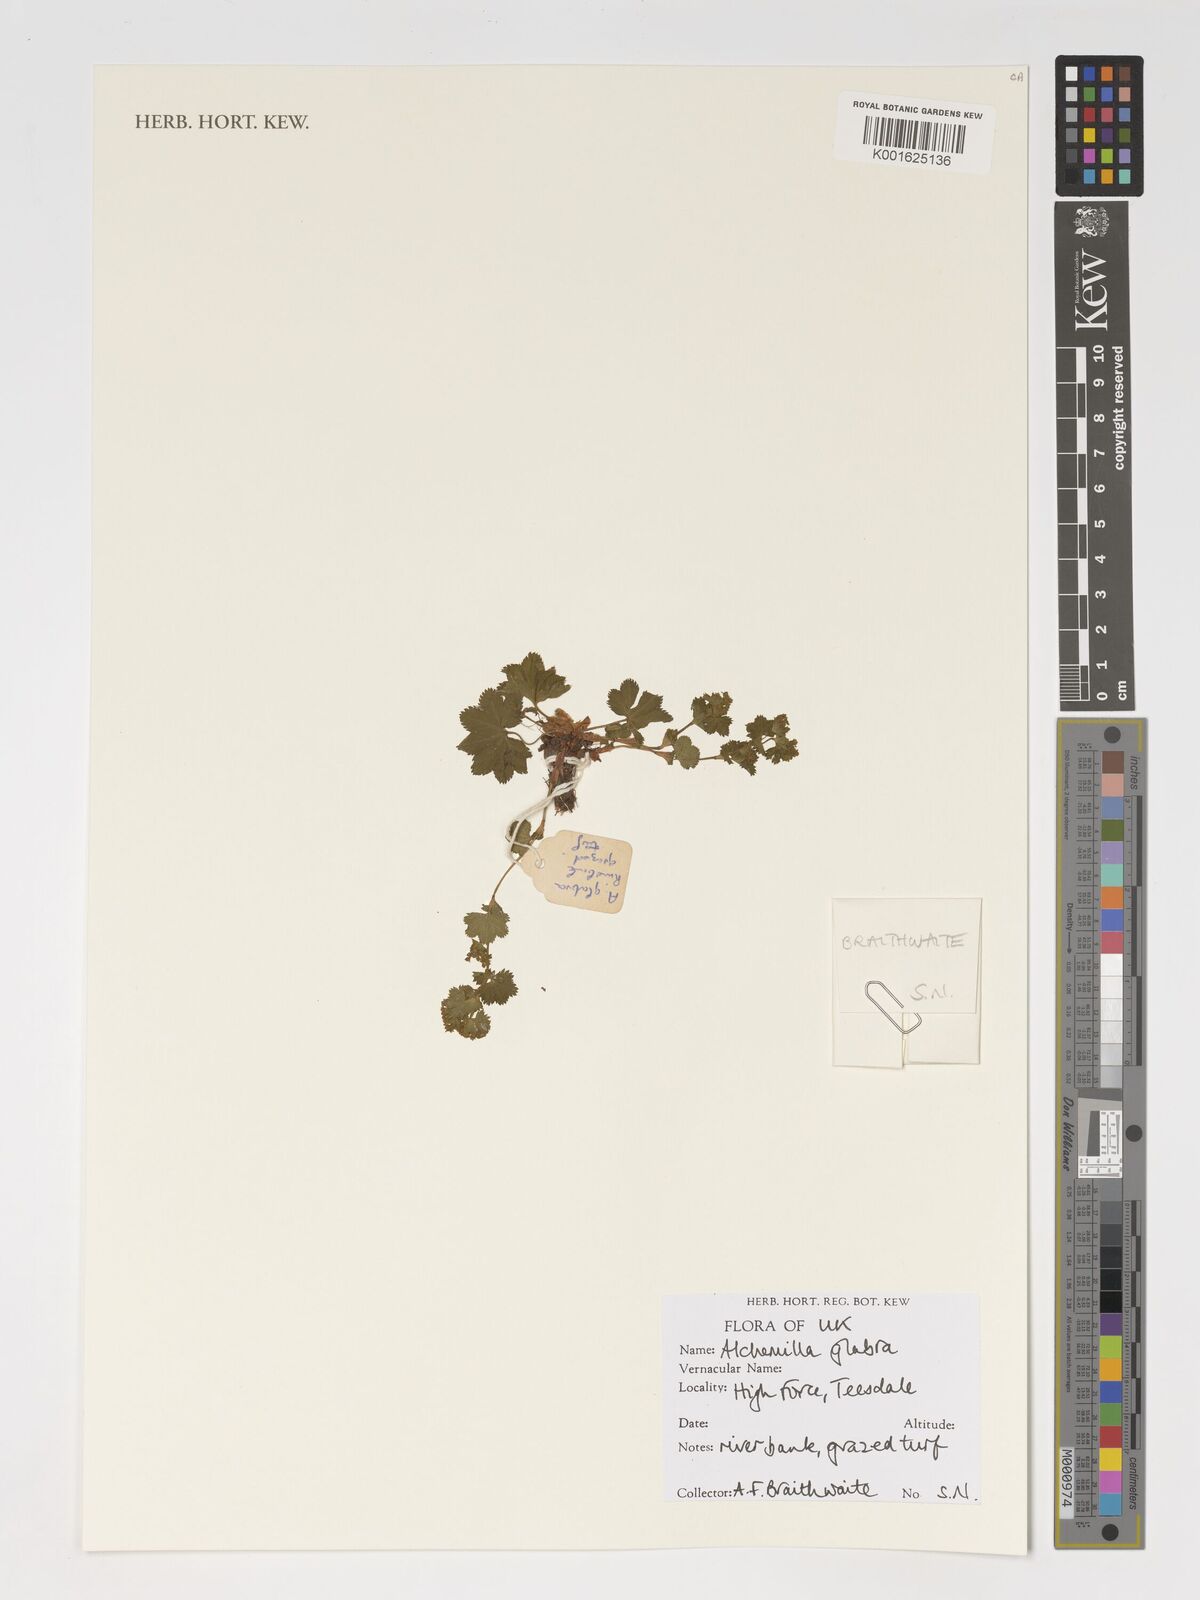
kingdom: Plantae
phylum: Tracheophyta
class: Magnoliopsida
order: Rosales
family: Rosaceae
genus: Alchemilla
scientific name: Alchemilla glabra
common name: Smooth lady's-mantle
